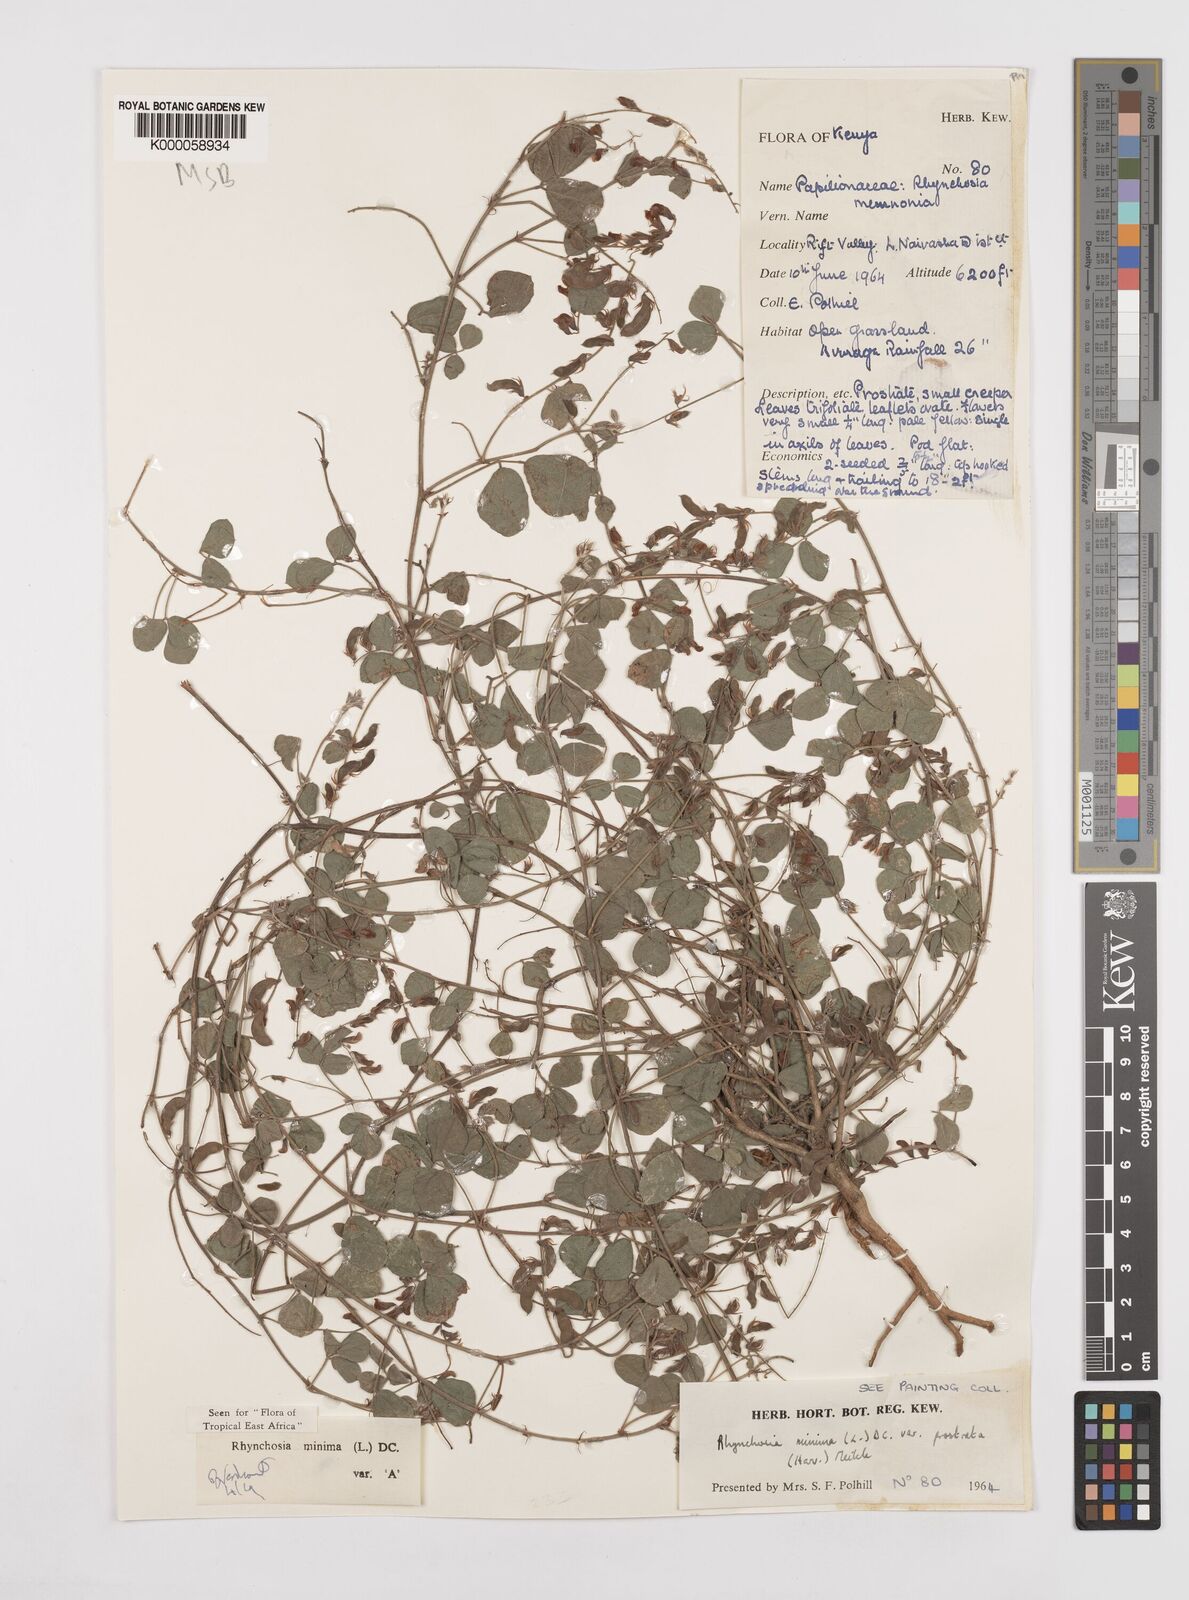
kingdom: Plantae
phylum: Tracheophyta
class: Magnoliopsida
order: Fabales
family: Fabaceae
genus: Rhynchosia
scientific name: Rhynchosia minima
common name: Least snoutbean
